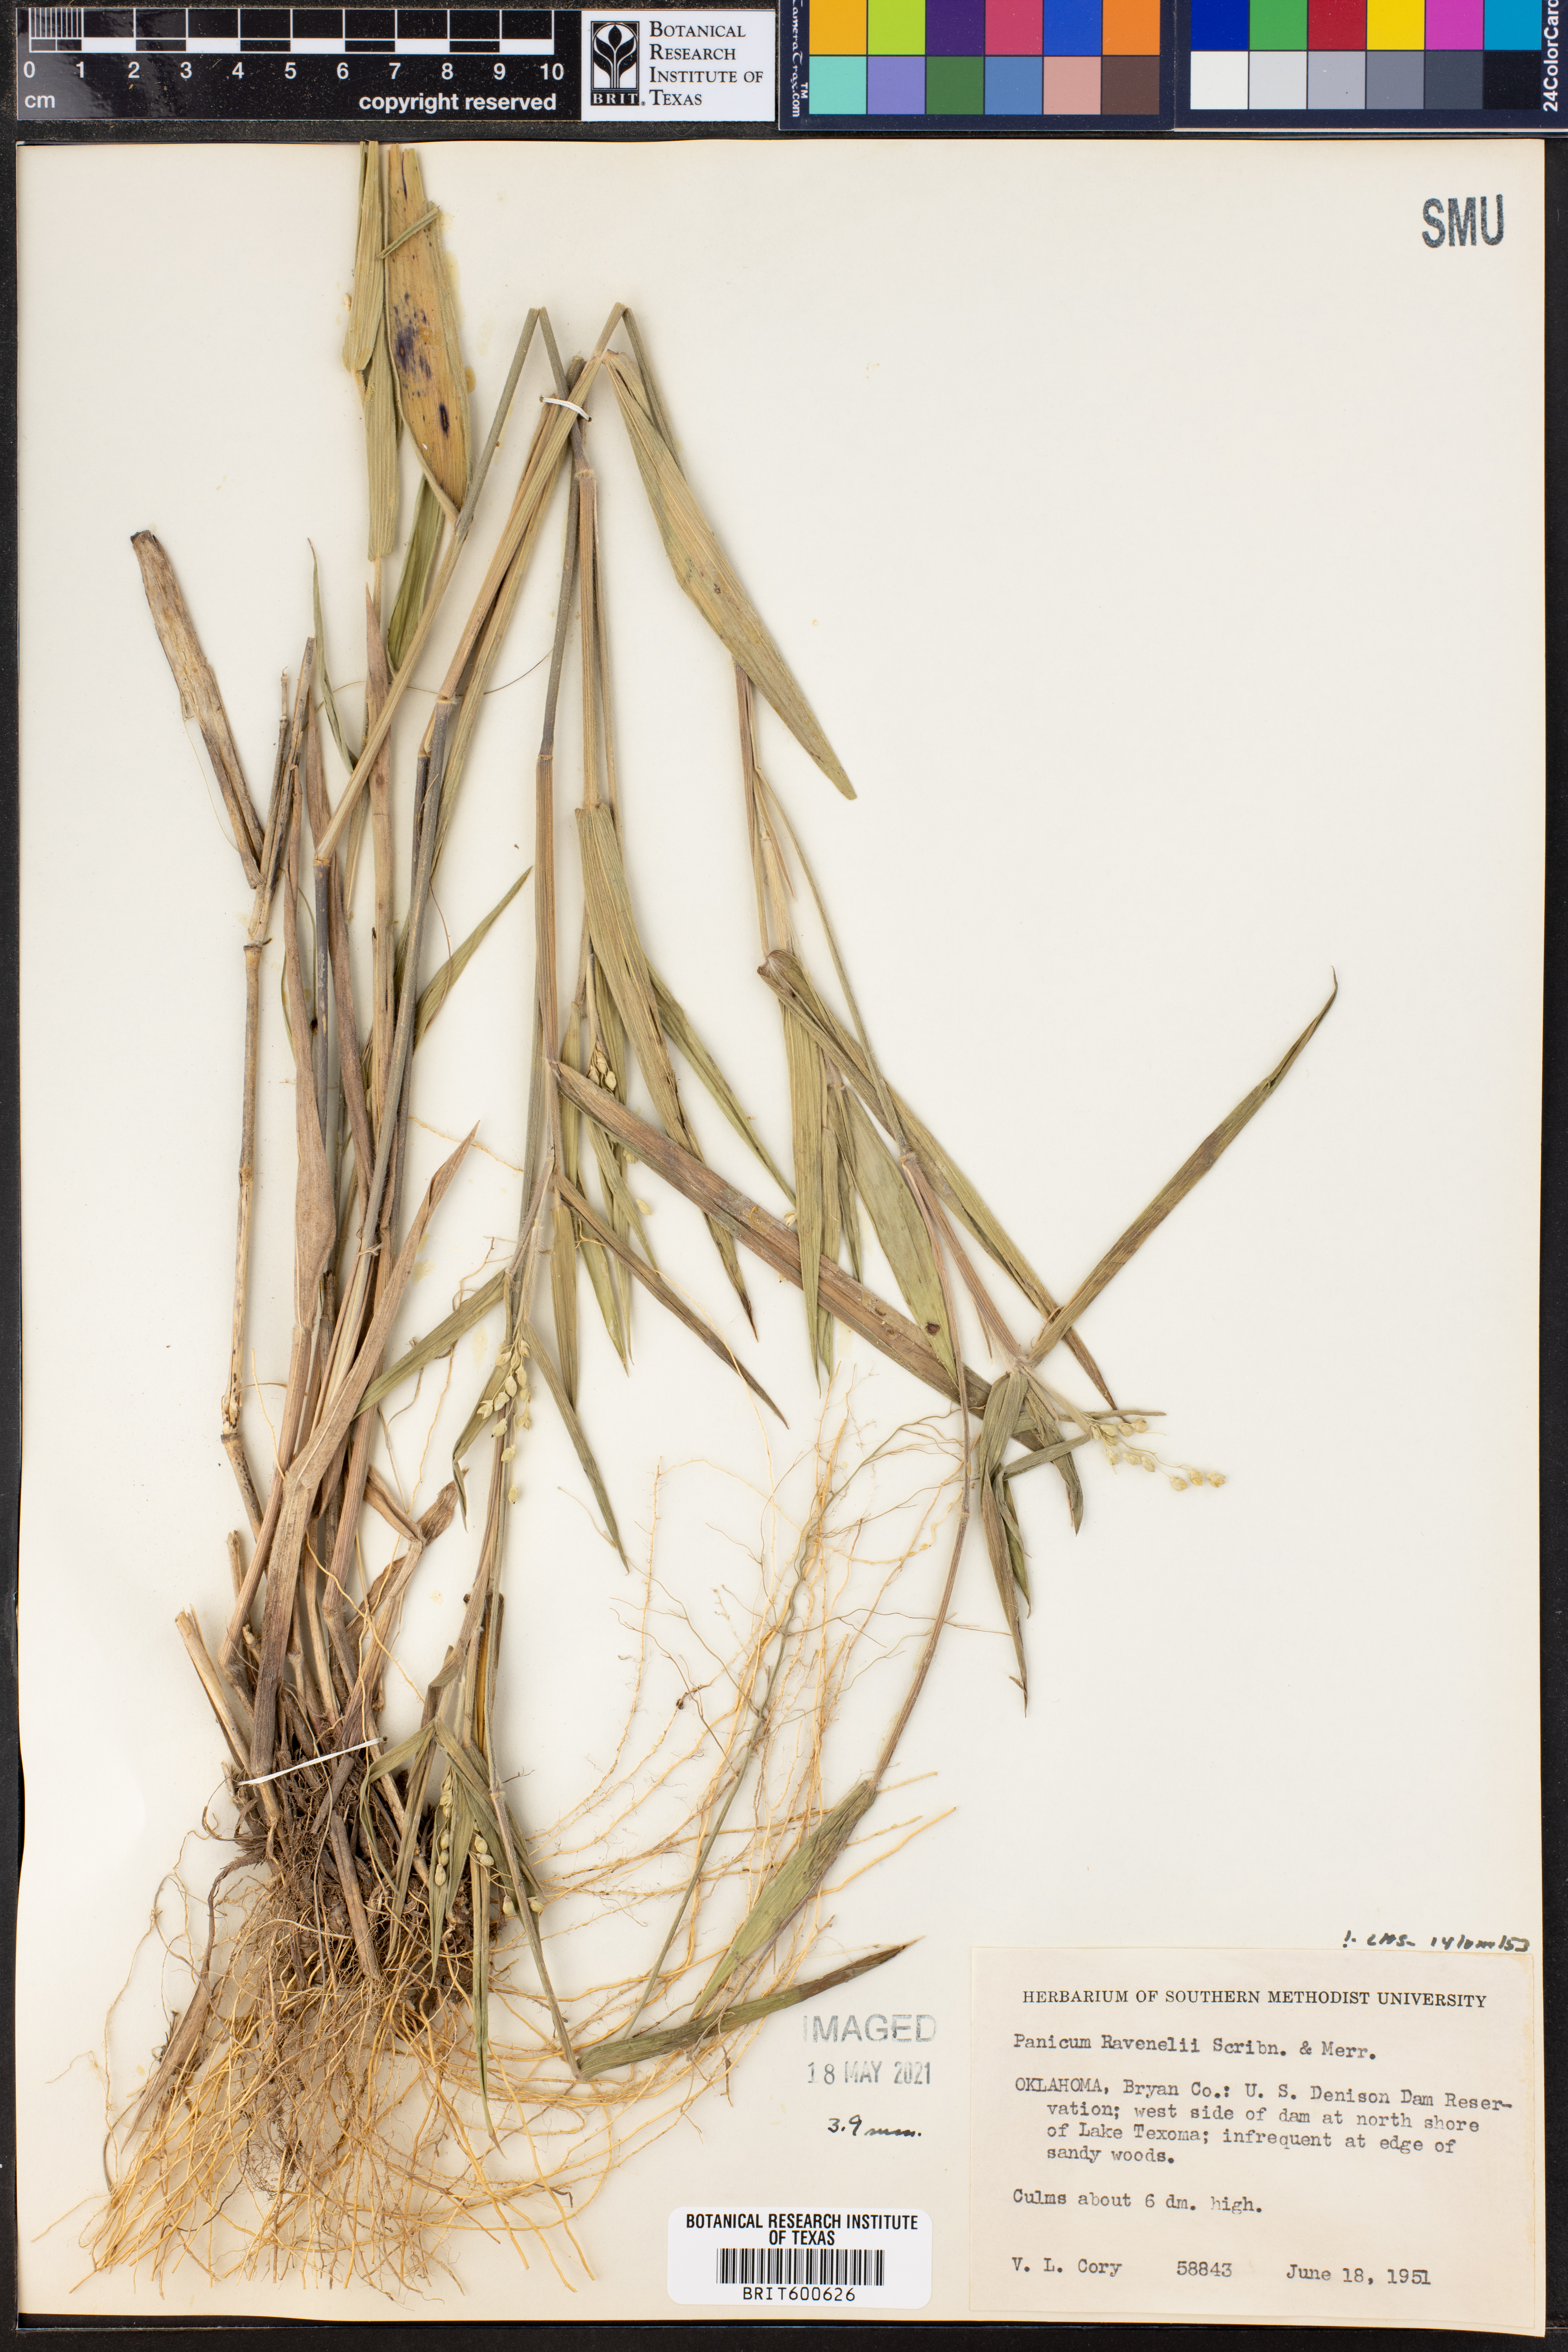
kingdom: Plantae
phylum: Tracheophyta
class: Liliopsida
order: Poales
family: Poaceae
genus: Dichanthelium
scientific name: Dichanthelium ravenelii
